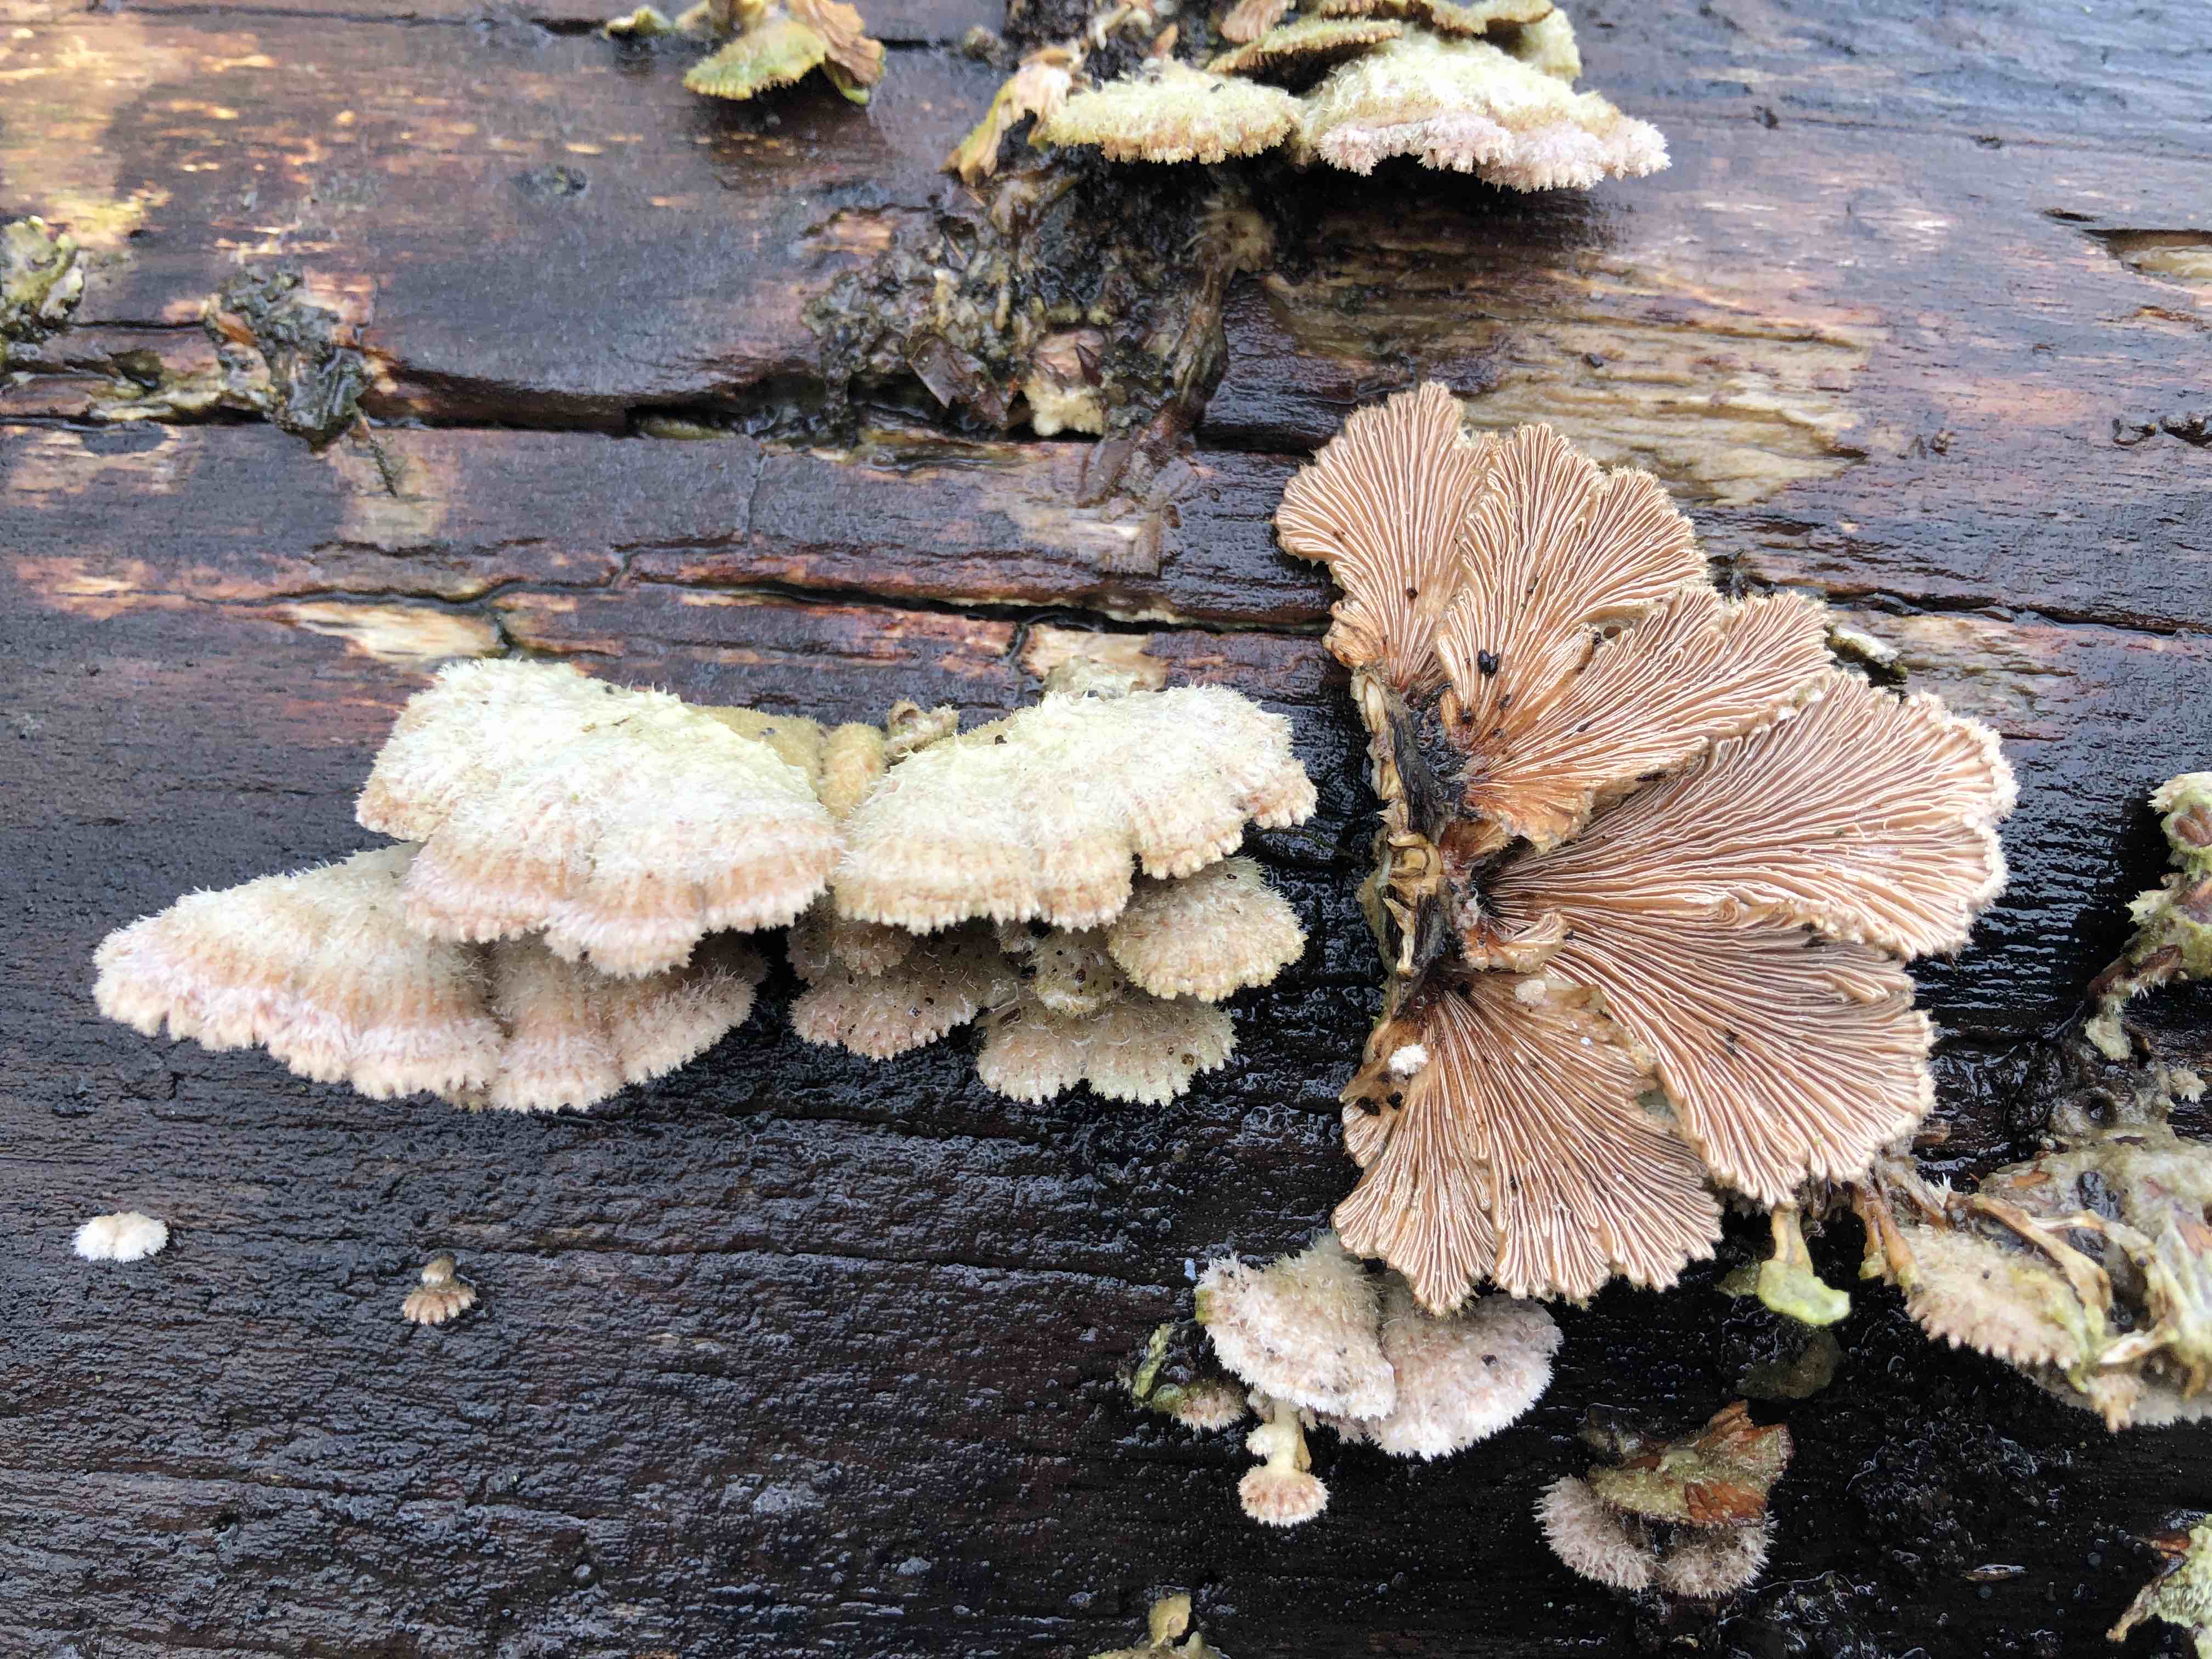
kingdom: Fungi
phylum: Basidiomycota
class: Agaricomycetes
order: Agaricales
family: Schizophyllaceae
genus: Schizophyllum
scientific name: Schizophyllum commune
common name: kløvblad
